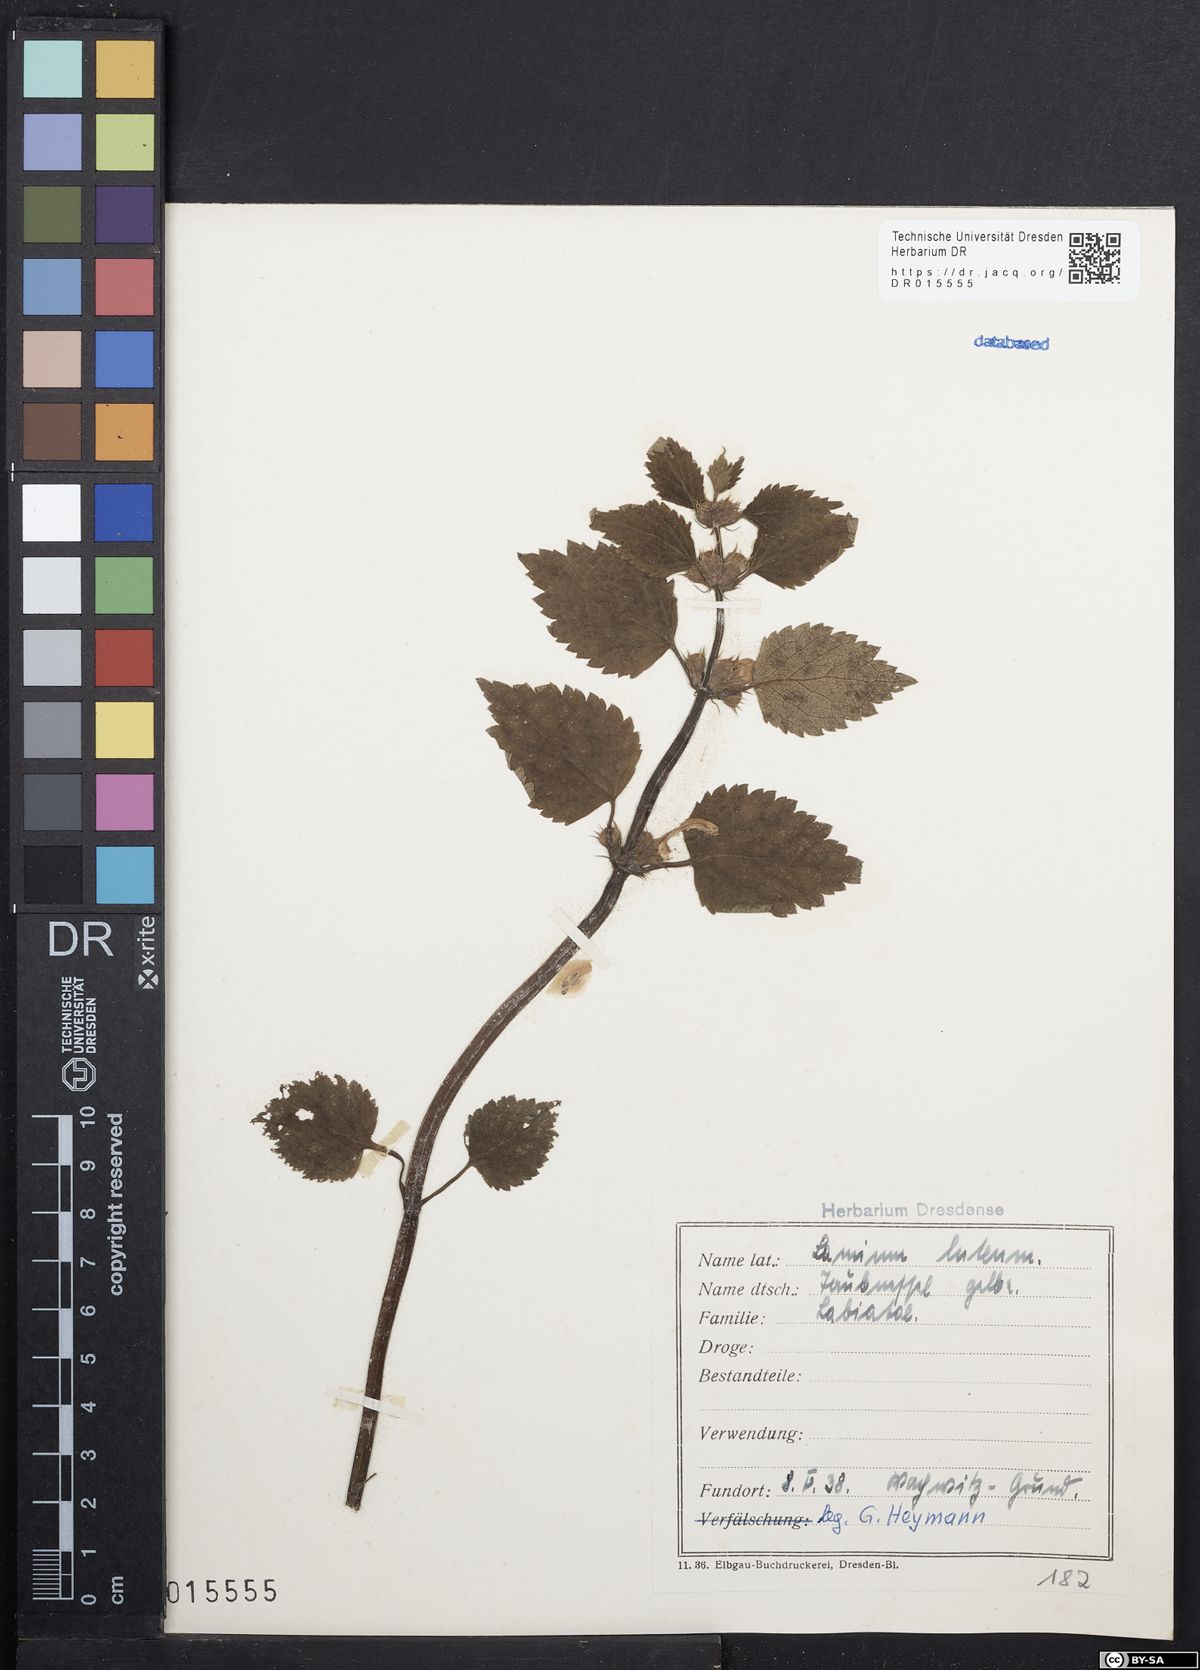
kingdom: Plantae
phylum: Tracheophyta
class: Magnoliopsida
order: Lamiales
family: Lamiaceae
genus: Lamium
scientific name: Lamium galeobdolon
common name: Yellow archangel
